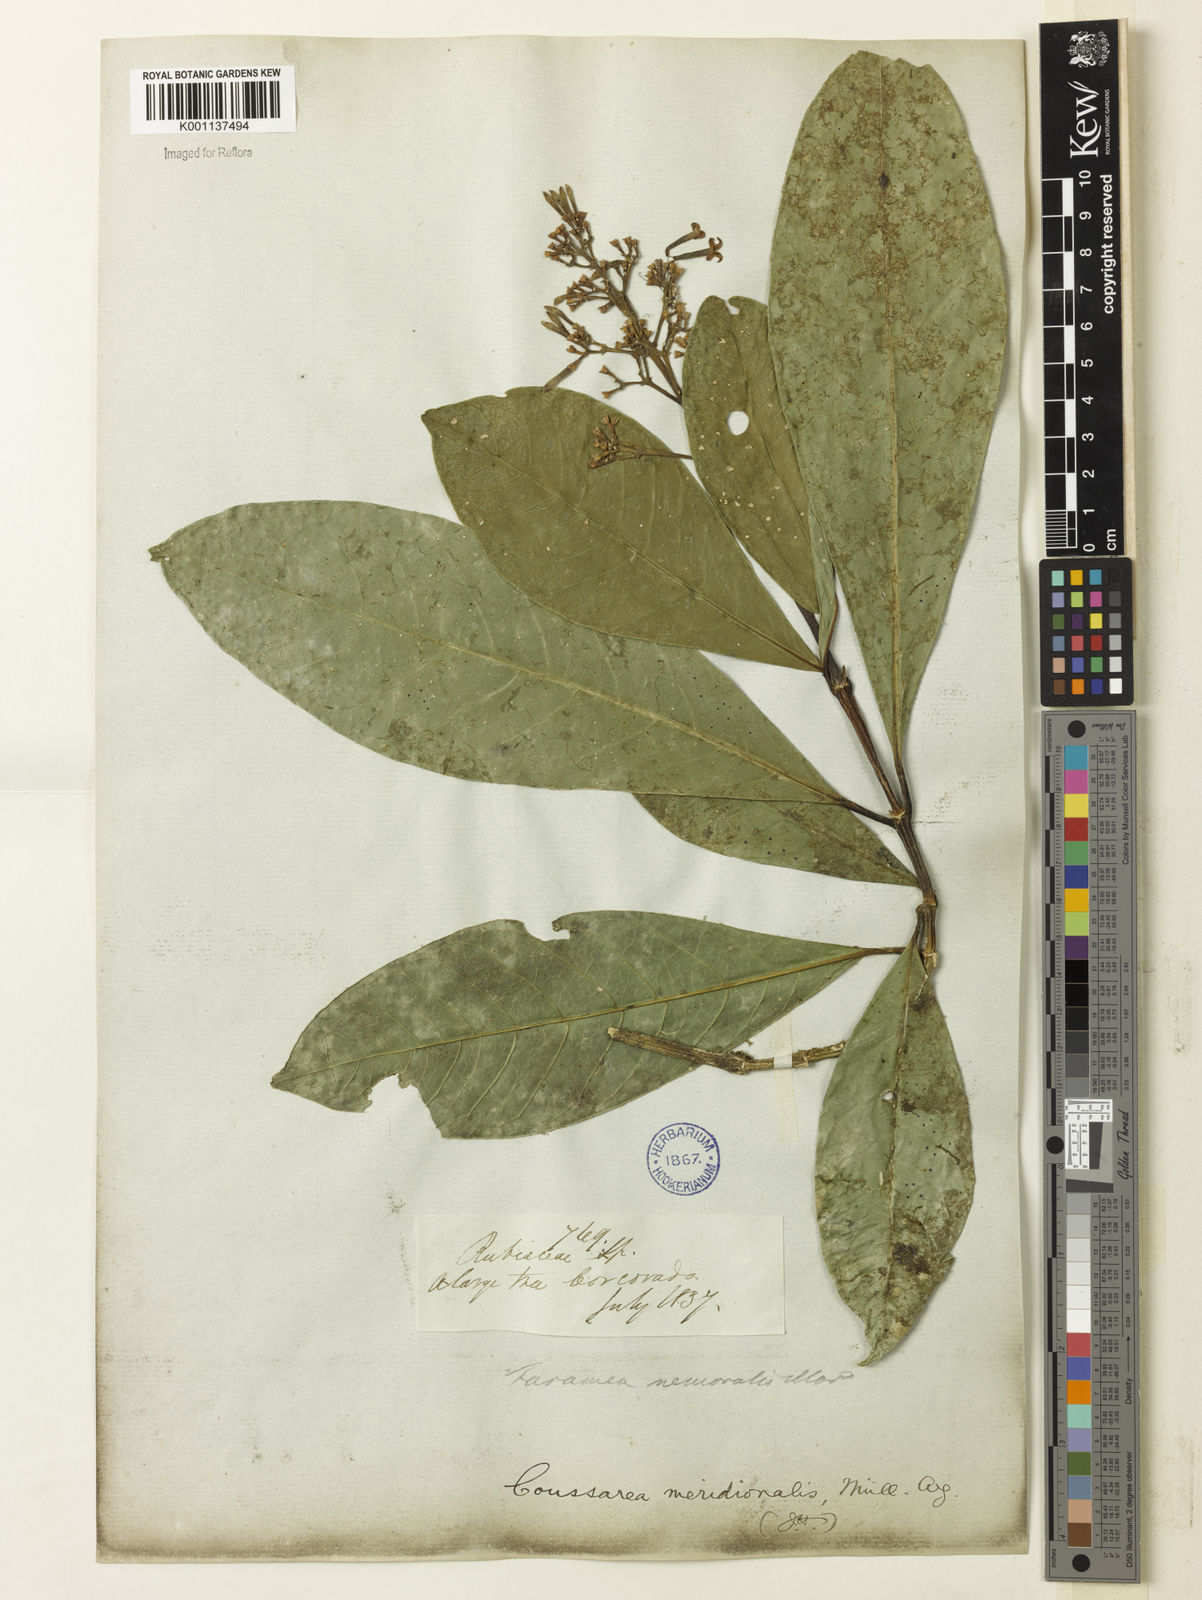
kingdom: Plantae
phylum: Tracheophyta
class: Magnoliopsida
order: Gentianales
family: Rubiaceae
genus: Coussarea
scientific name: Coussarea
